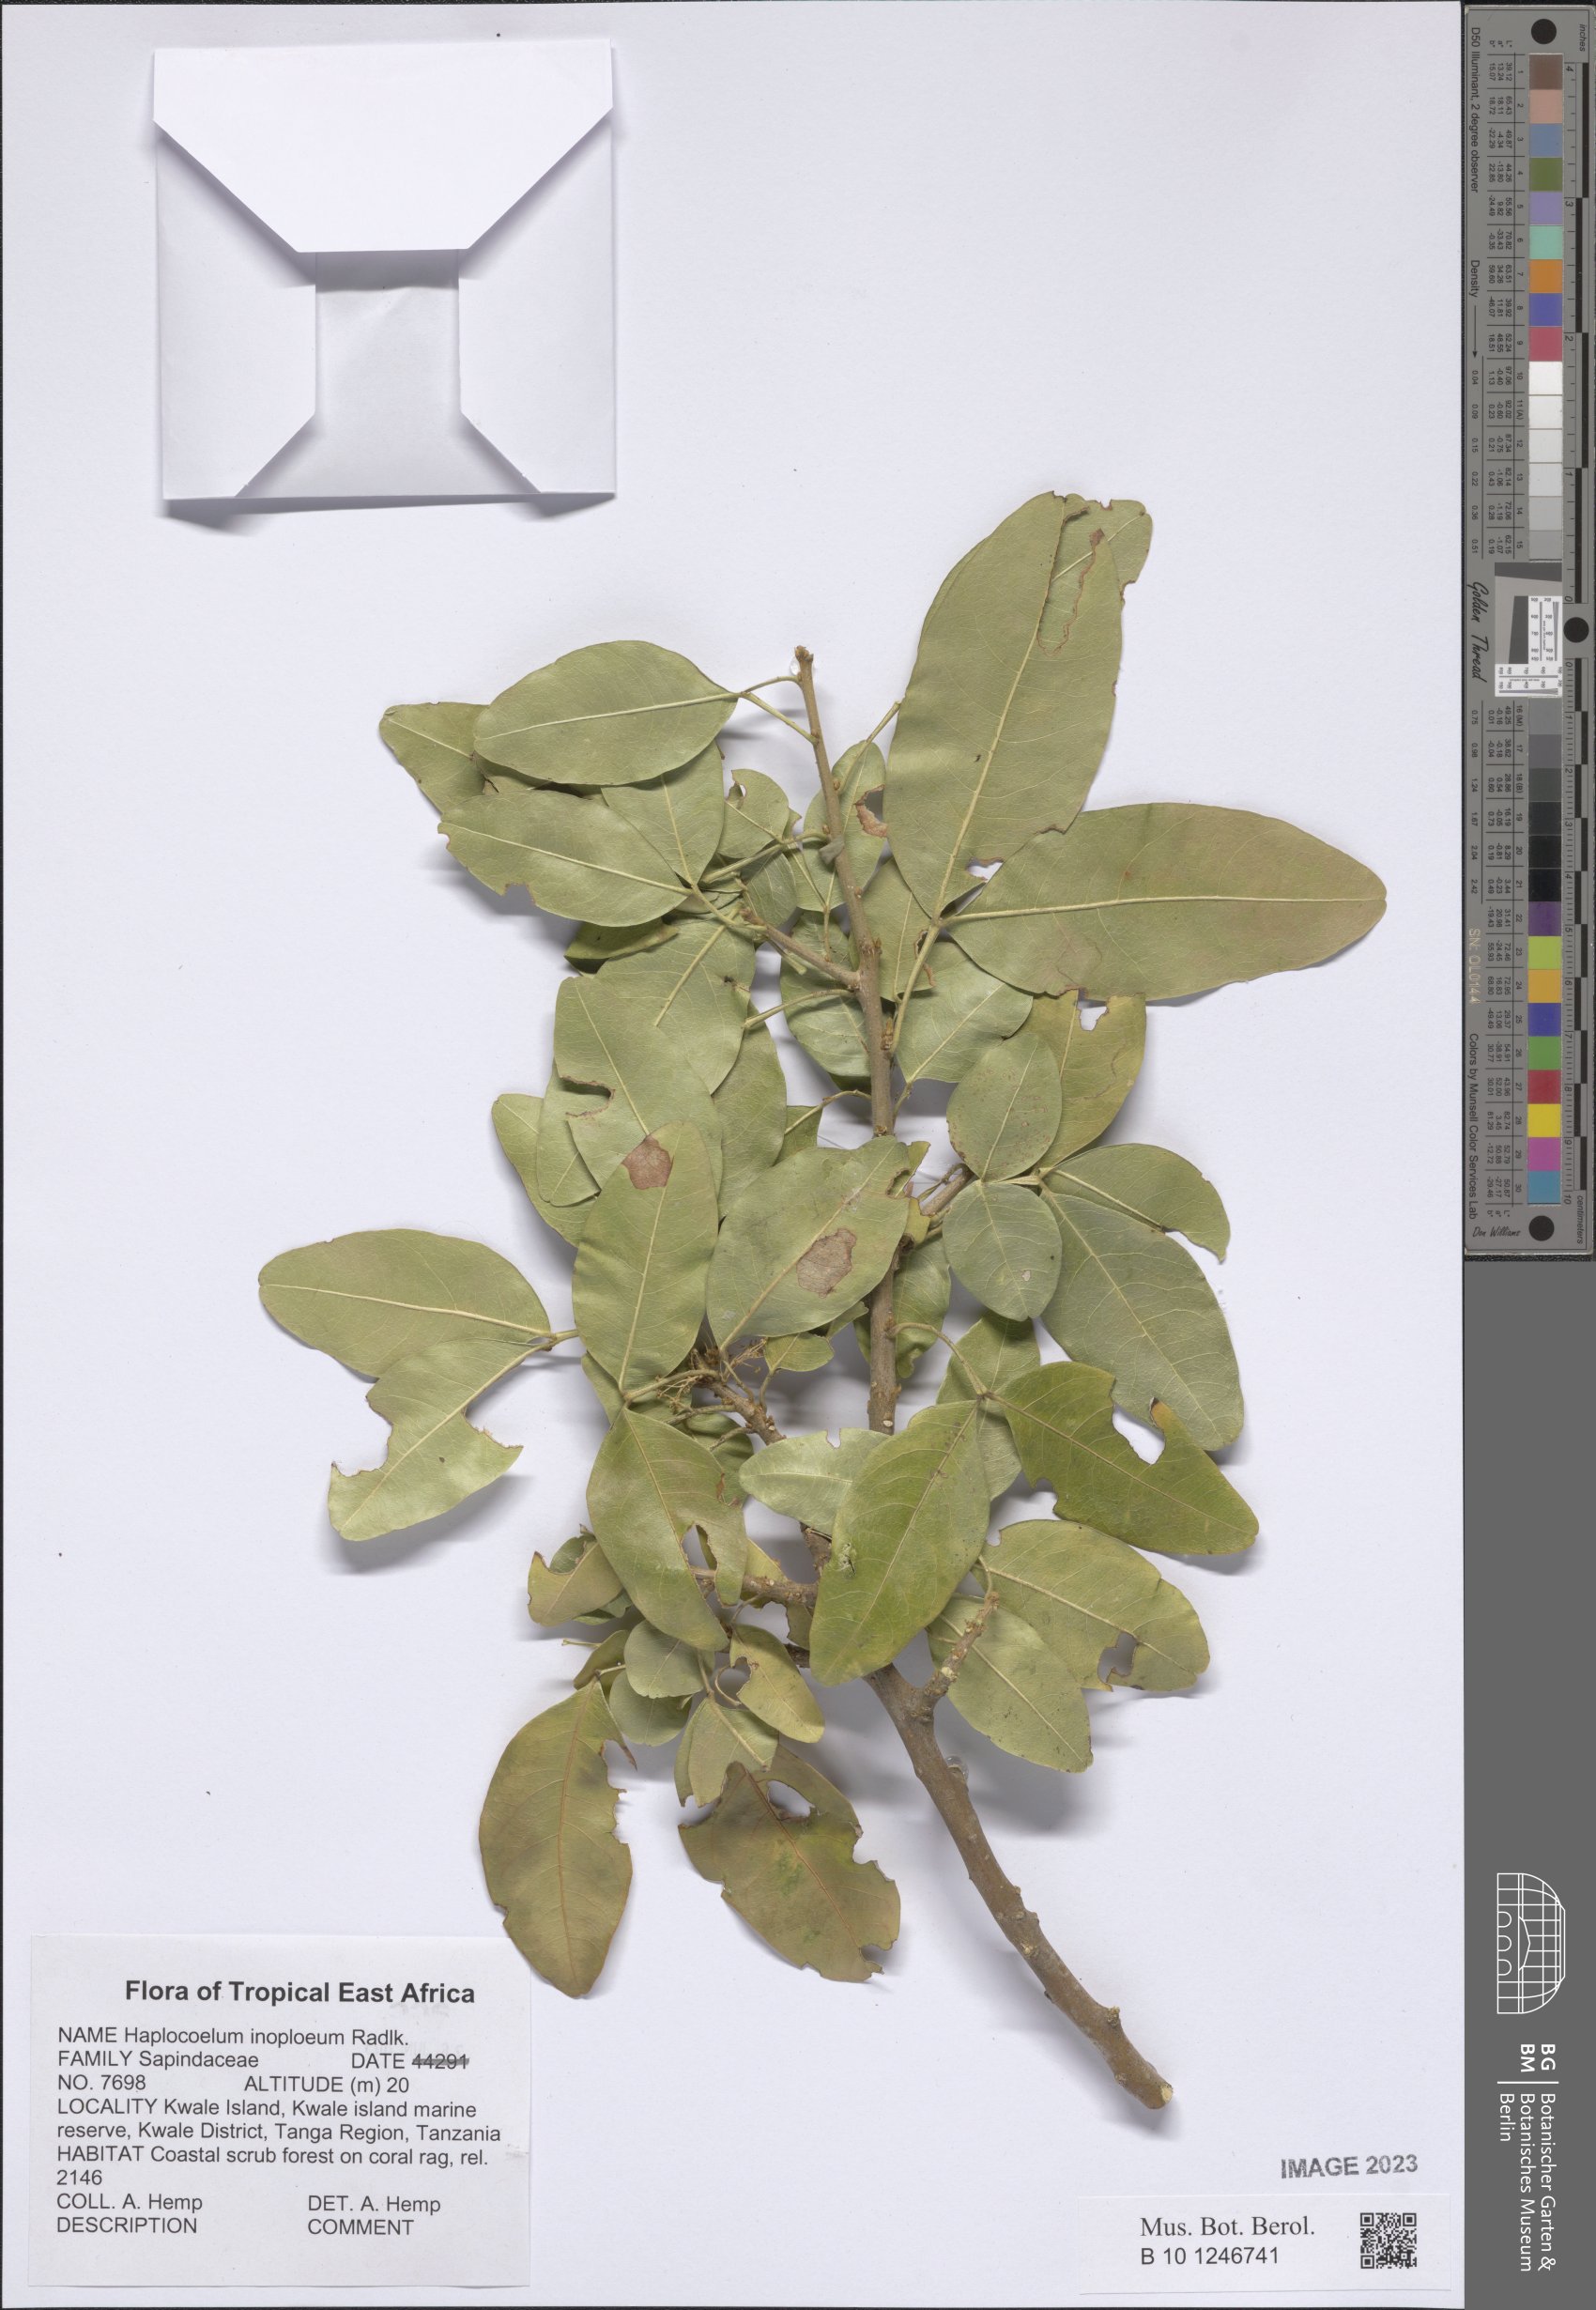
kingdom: Plantae
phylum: Tracheophyta
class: Magnoliopsida
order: Sapindales
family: Sapindaceae
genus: Haplocoelum
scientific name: Haplocoelum inoploeum
